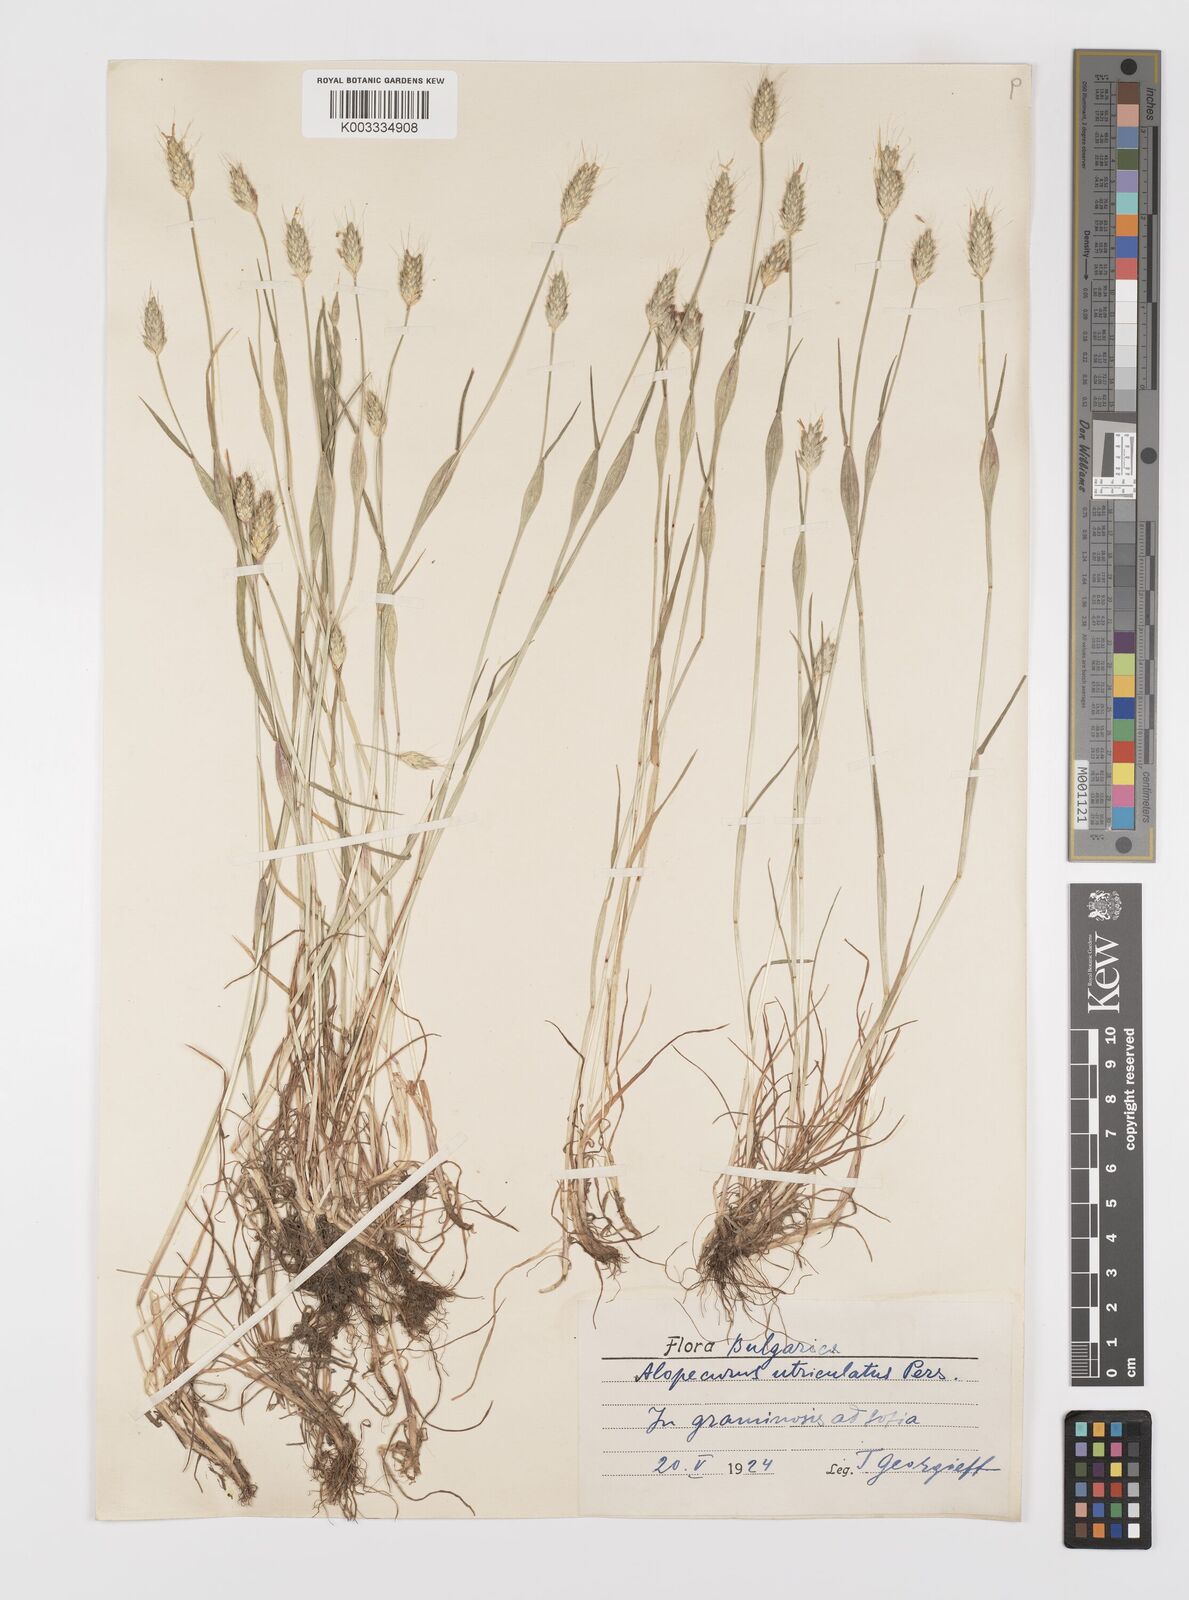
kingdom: Plantae
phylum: Tracheophyta
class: Liliopsida
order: Poales
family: Poaceae
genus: Alopecurus
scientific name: Alopecurus rendlei
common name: Rendle's meadow foxtail
